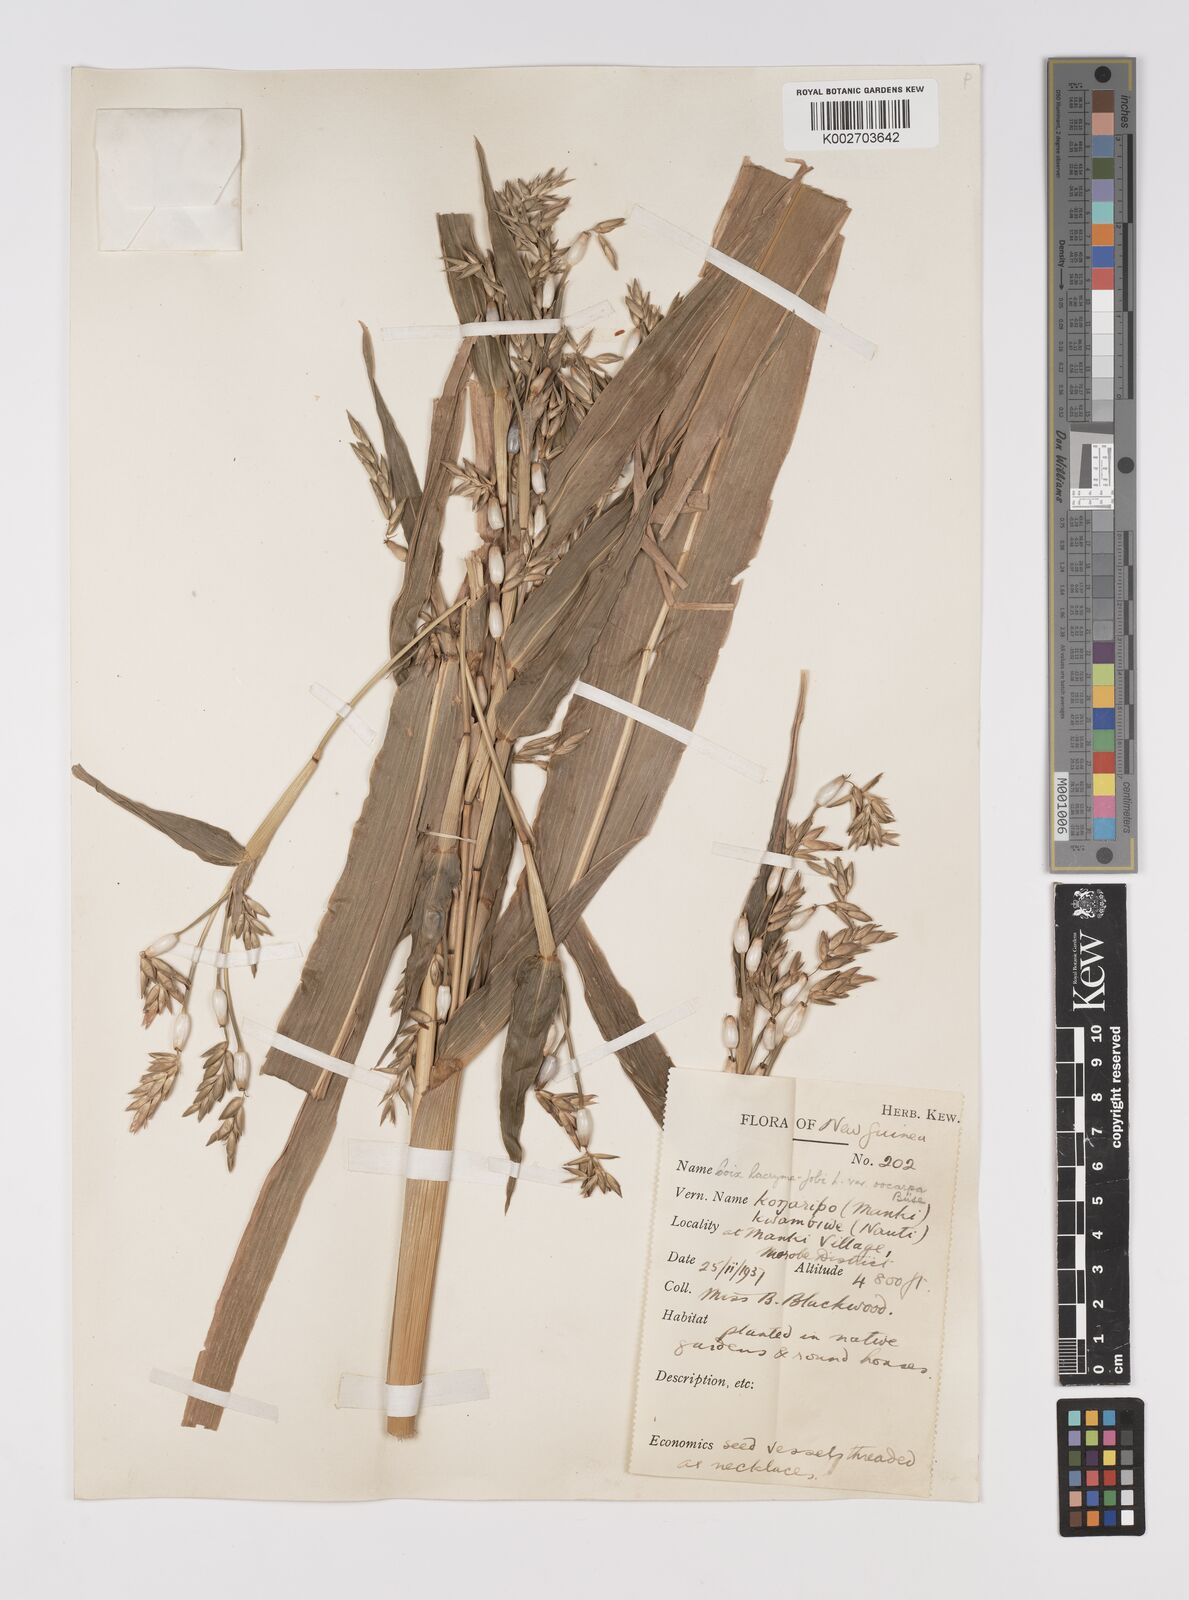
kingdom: Plantae
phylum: Tracheophyta
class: Liliopsida
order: Poales
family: Poaceae
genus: Coix
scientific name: Coix lacryma-jobi
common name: Job's tears
